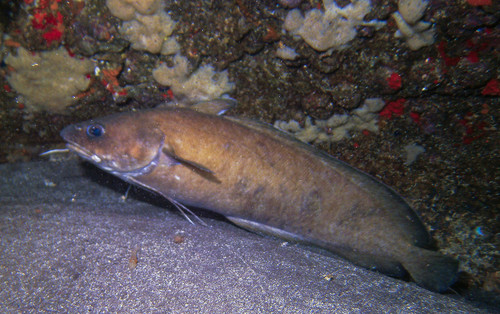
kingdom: Animalia
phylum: Chordata
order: Gadiformes
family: Phycidae
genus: Phycis
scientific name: Phycis phycis
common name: Forkbeard
